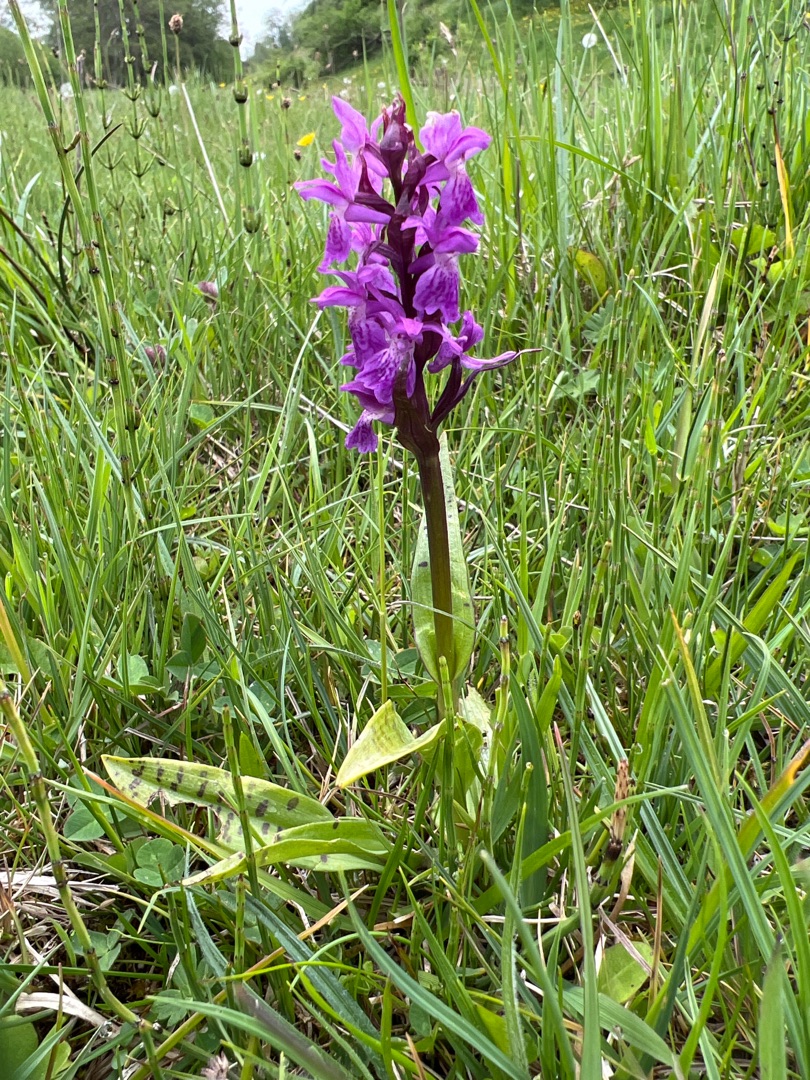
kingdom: Plantae
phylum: Tracheophyta
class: Liliopsida
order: Asparagales
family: Orchidaceae
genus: Dactylorhiza
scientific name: Dactylorhiza majalis
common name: Maj-gøgeurt
